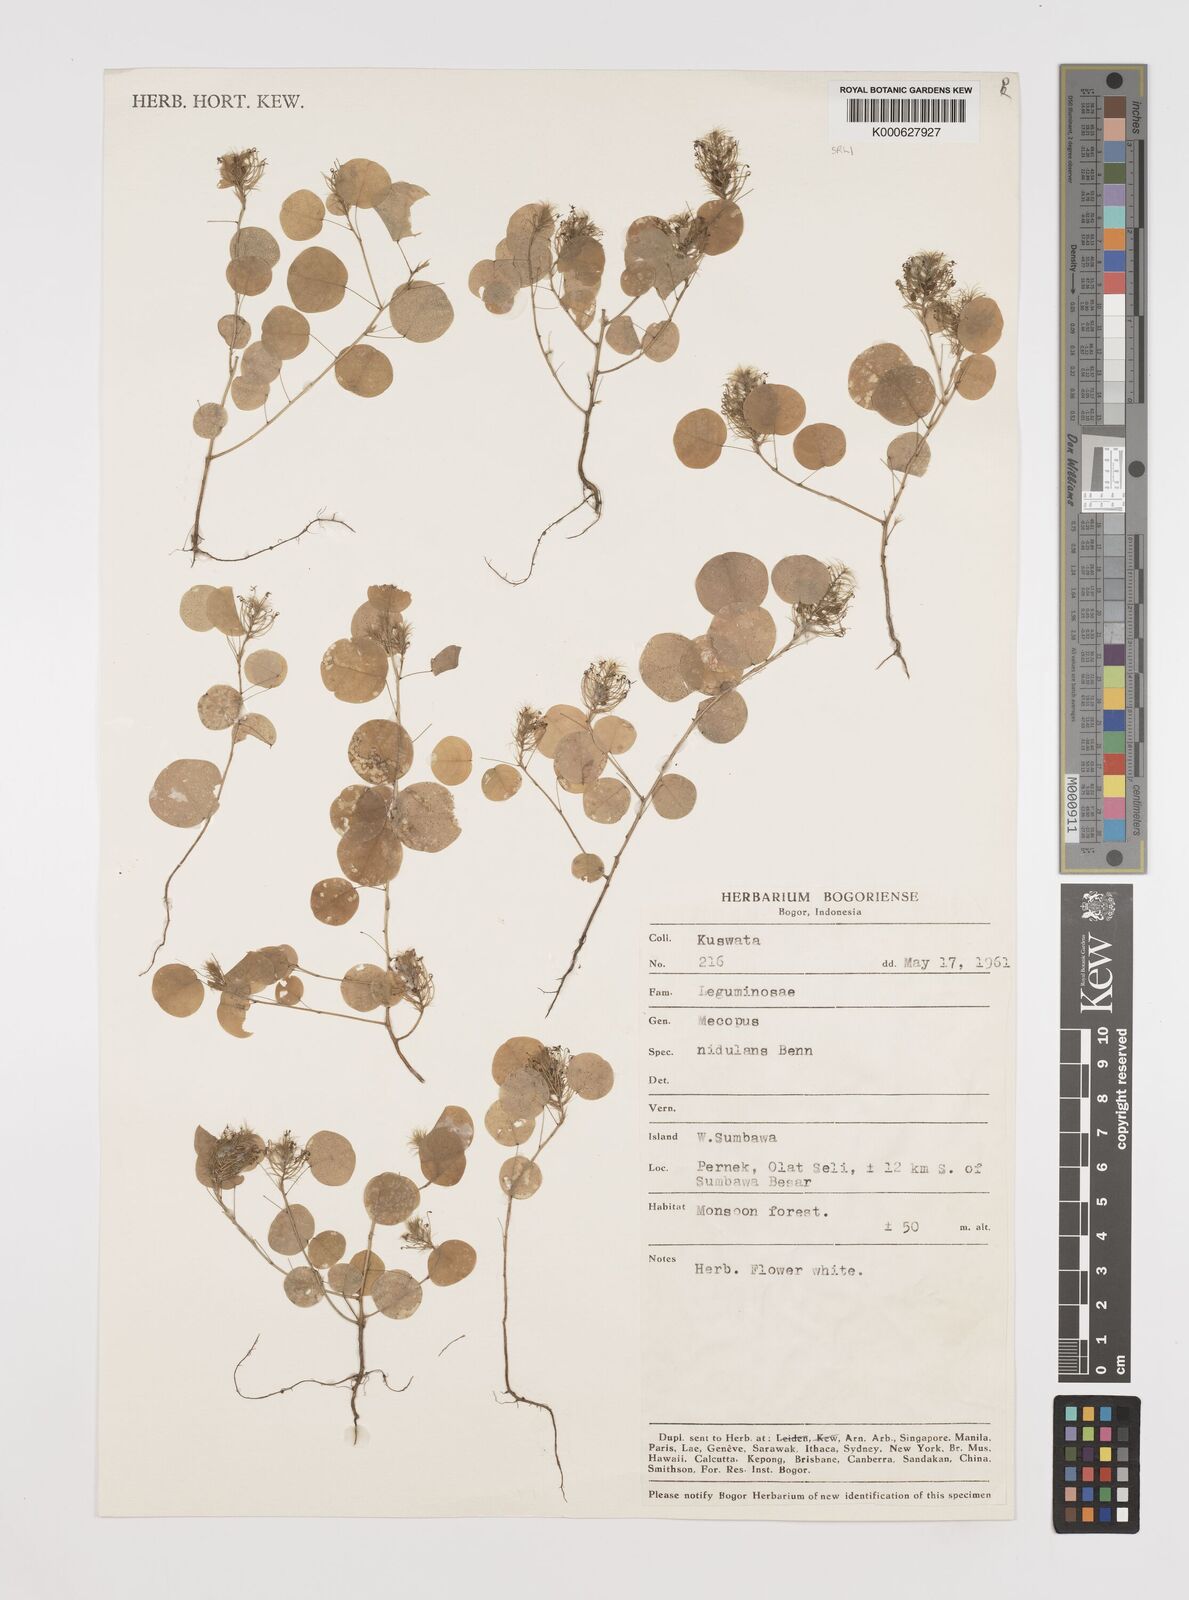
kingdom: Plantae
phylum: Tracheophyta
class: Magnoliopsida
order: Fabales
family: Fabaceae
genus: Mecopus
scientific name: Mecopus nidulans
